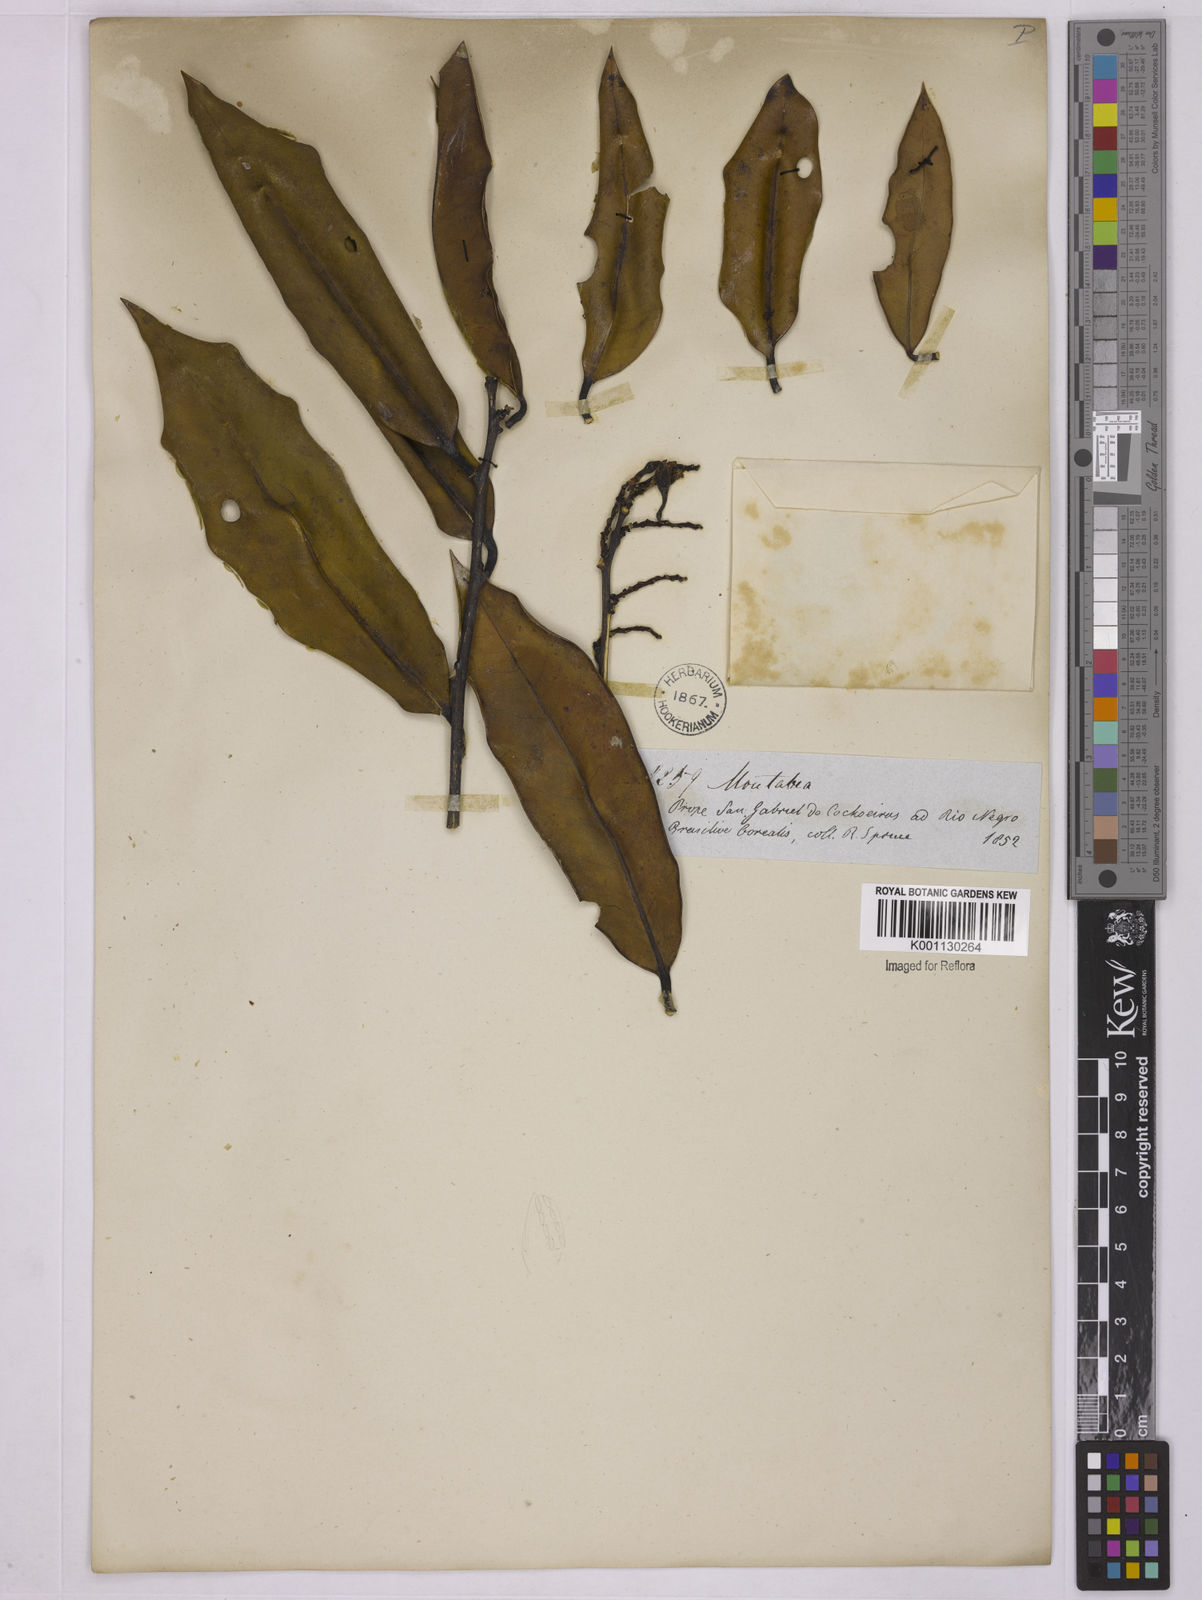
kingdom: Plantae
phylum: Tracheophyta
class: Magnoliopsida
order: Fabales
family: Polygalaceae
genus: Moutabea
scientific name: Moutabea aculeata
